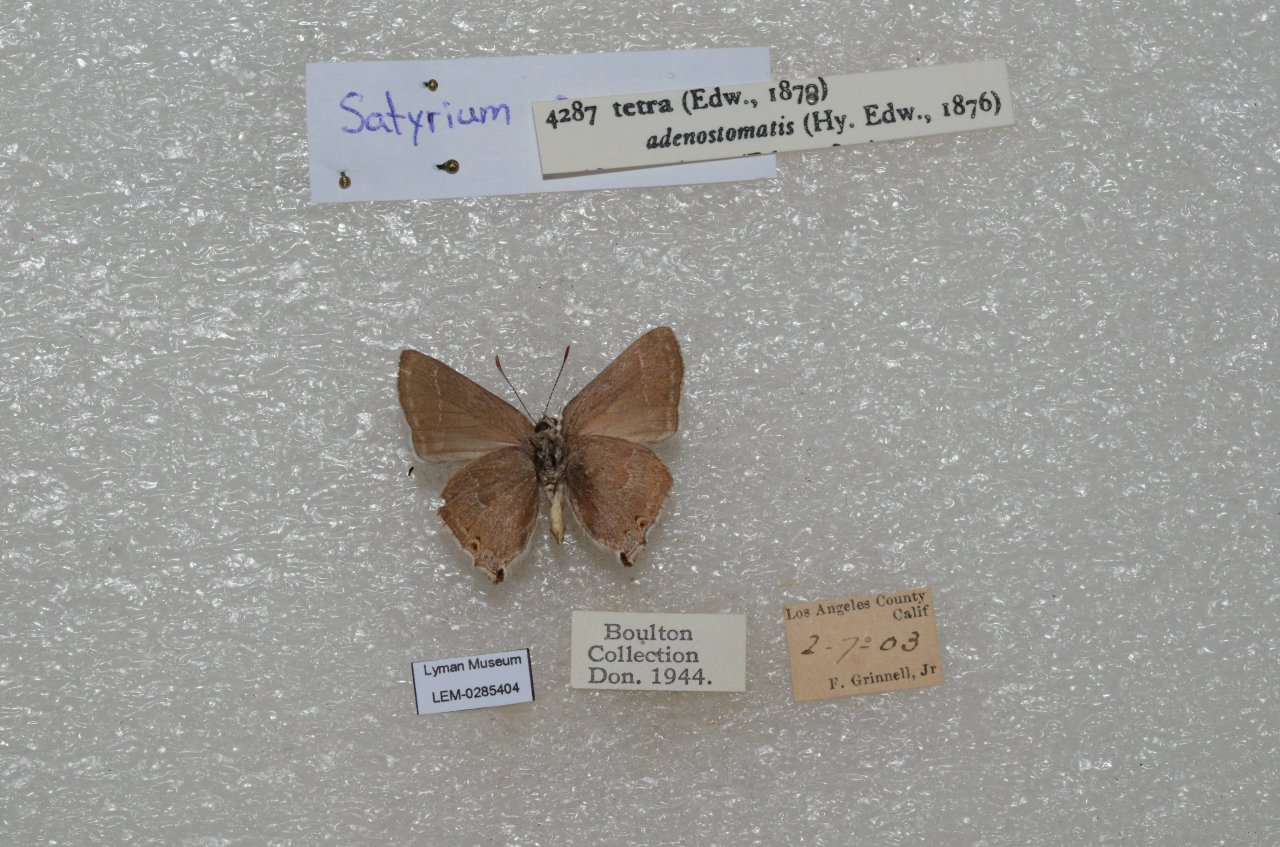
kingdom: Animalia
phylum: Arthropoda
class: Insecta
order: Lepidoptera
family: Lycaenidae
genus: Thecla
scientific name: Thecla tetra
